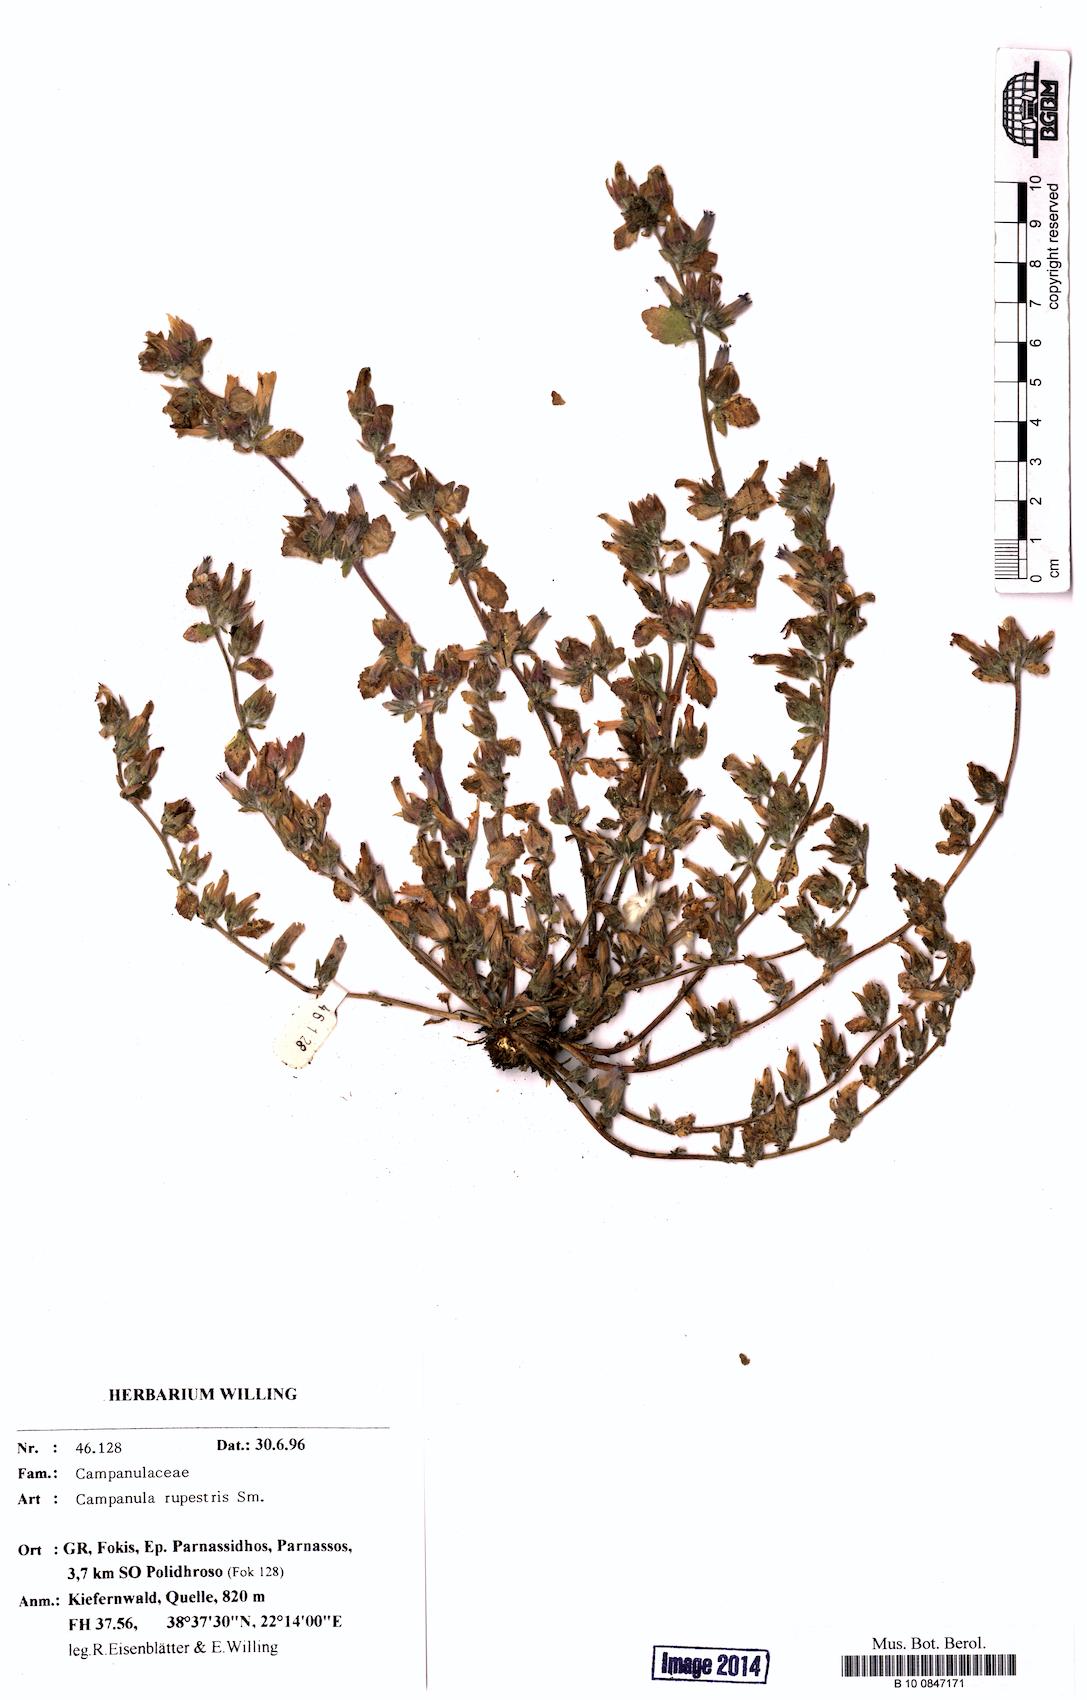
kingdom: Plantae
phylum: Tracheophyta
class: Magnoliopsida
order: Asterales
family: Campanulaceae
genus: Campanula
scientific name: Campanula rupestris
